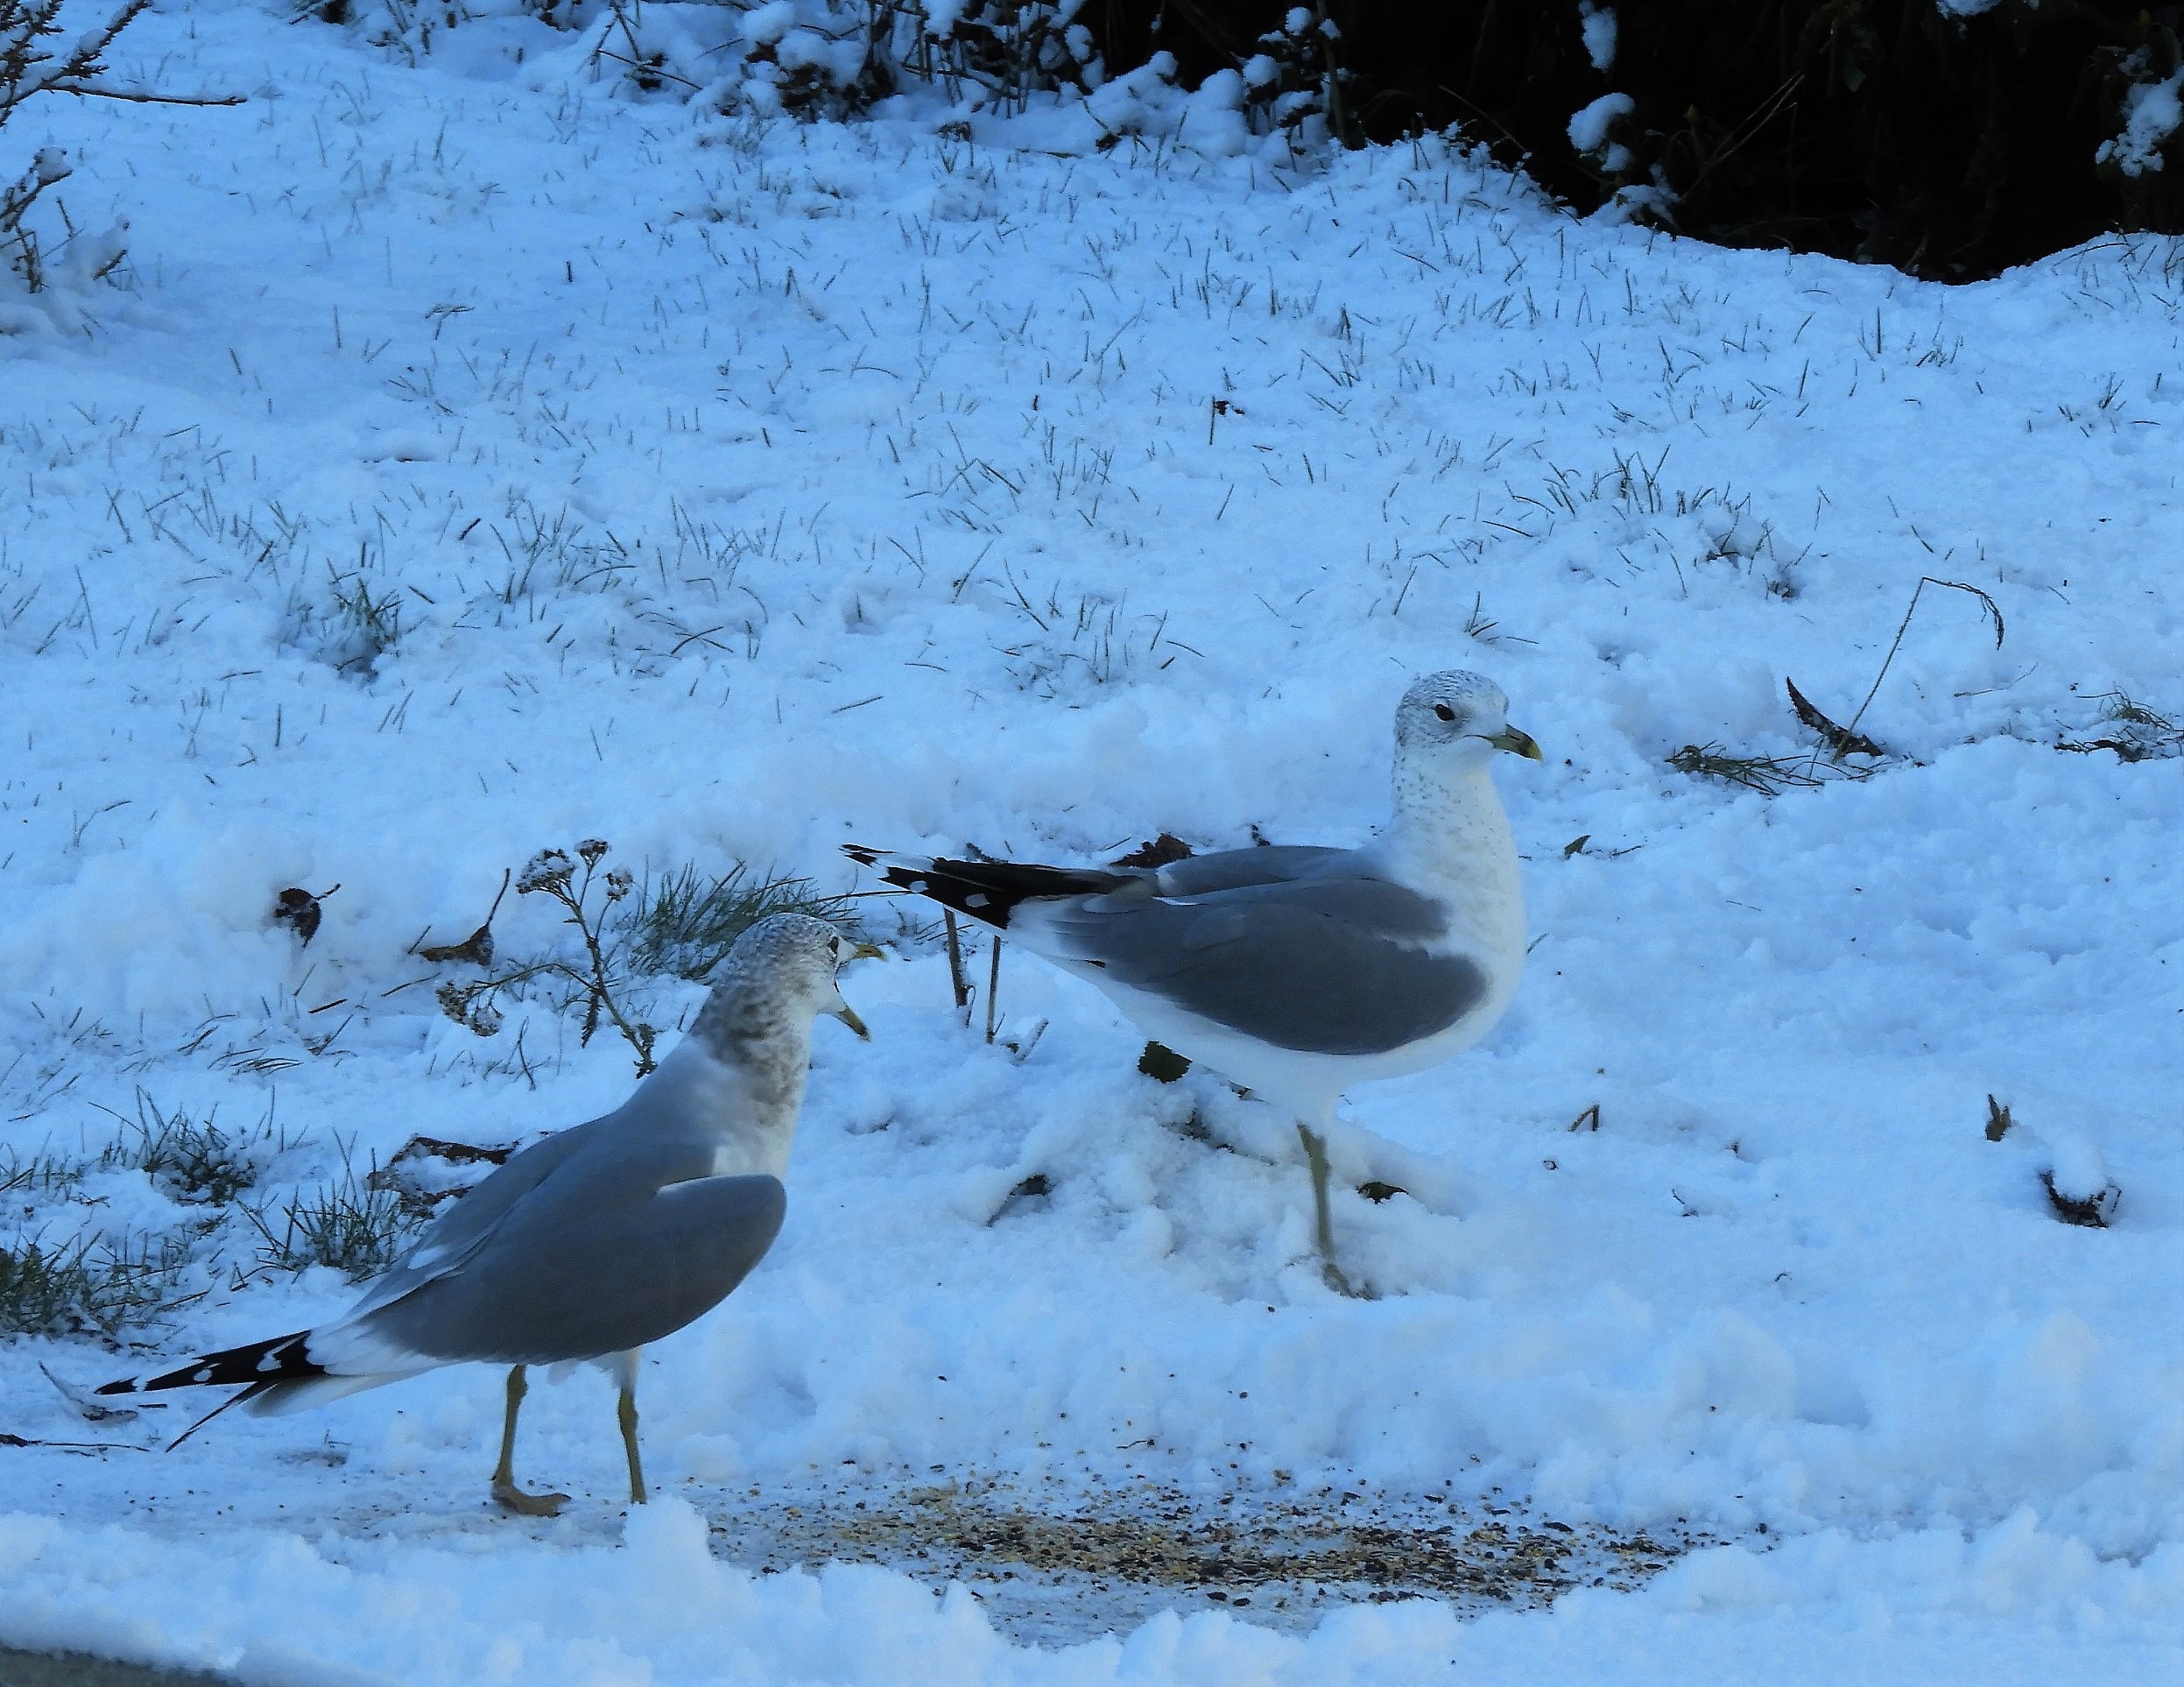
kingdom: Animalia
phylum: Chordata
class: Aves
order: Charadriiformes
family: Laridae
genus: Larus
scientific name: Larus canus
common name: Stormmåge
